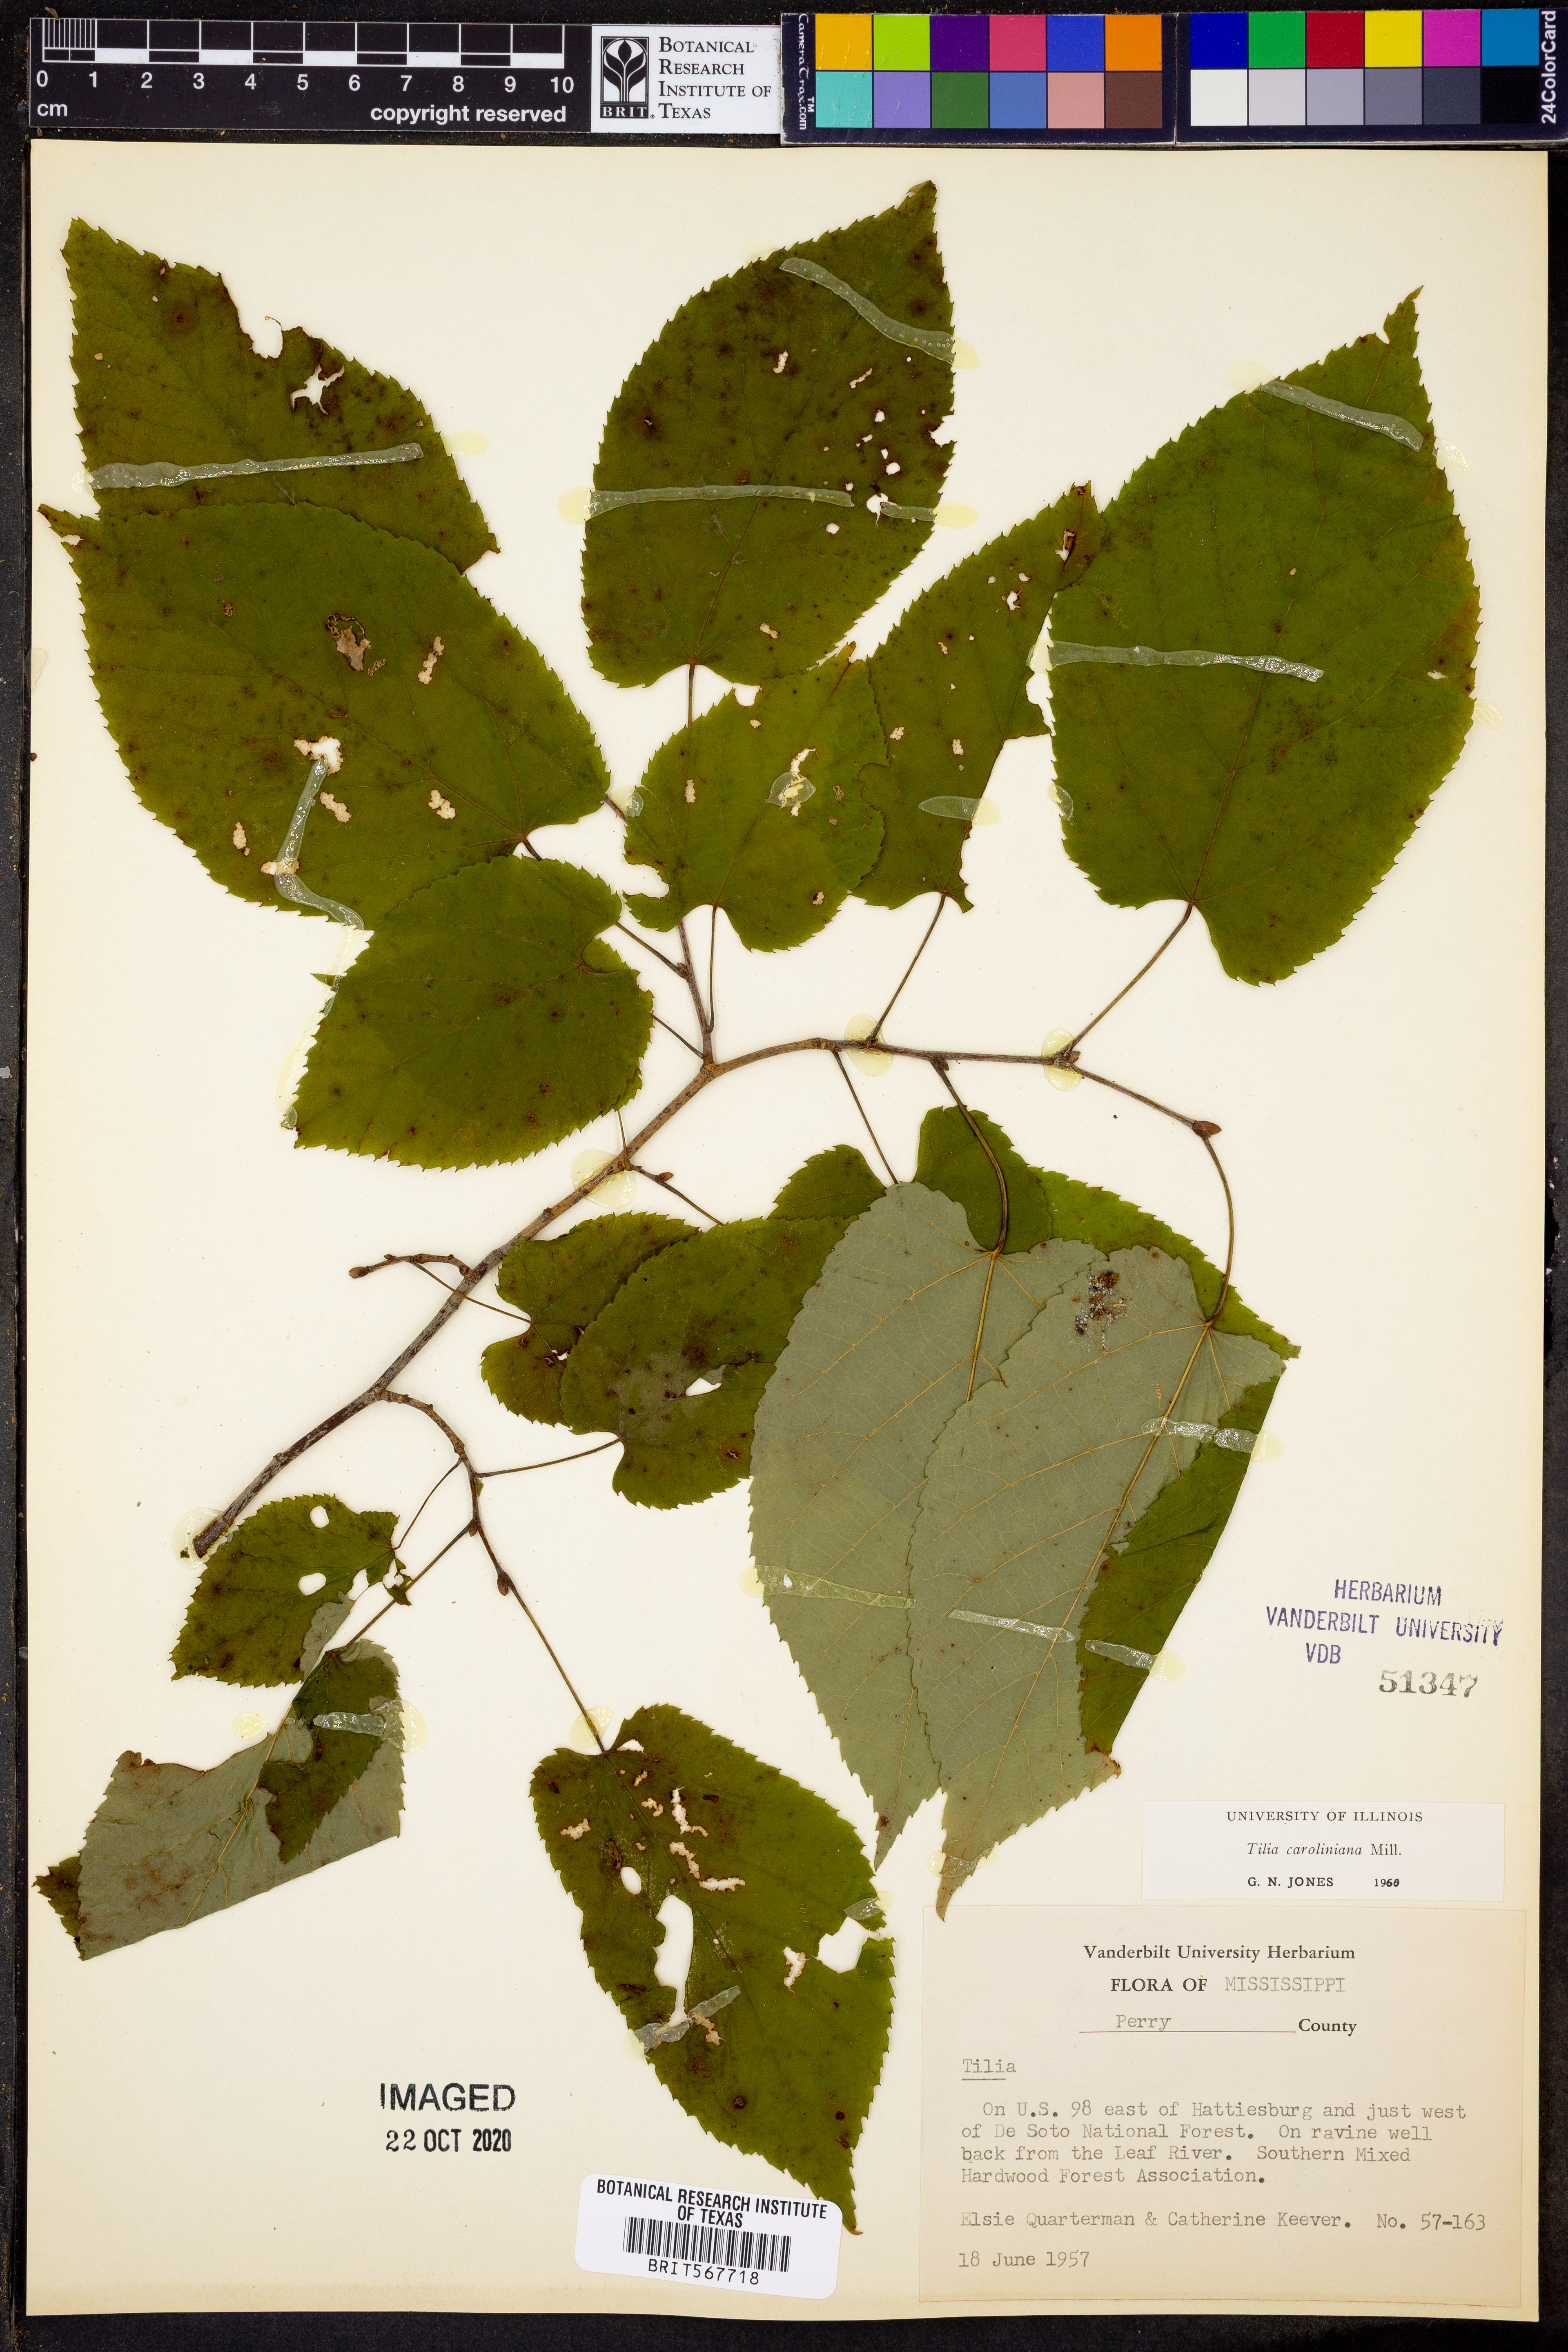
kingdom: Plantae
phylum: Tracheophyta
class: Magnoliopsida
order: Malvales
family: Malvaceae
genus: Tilia
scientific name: Tilia americana
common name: Basswood
